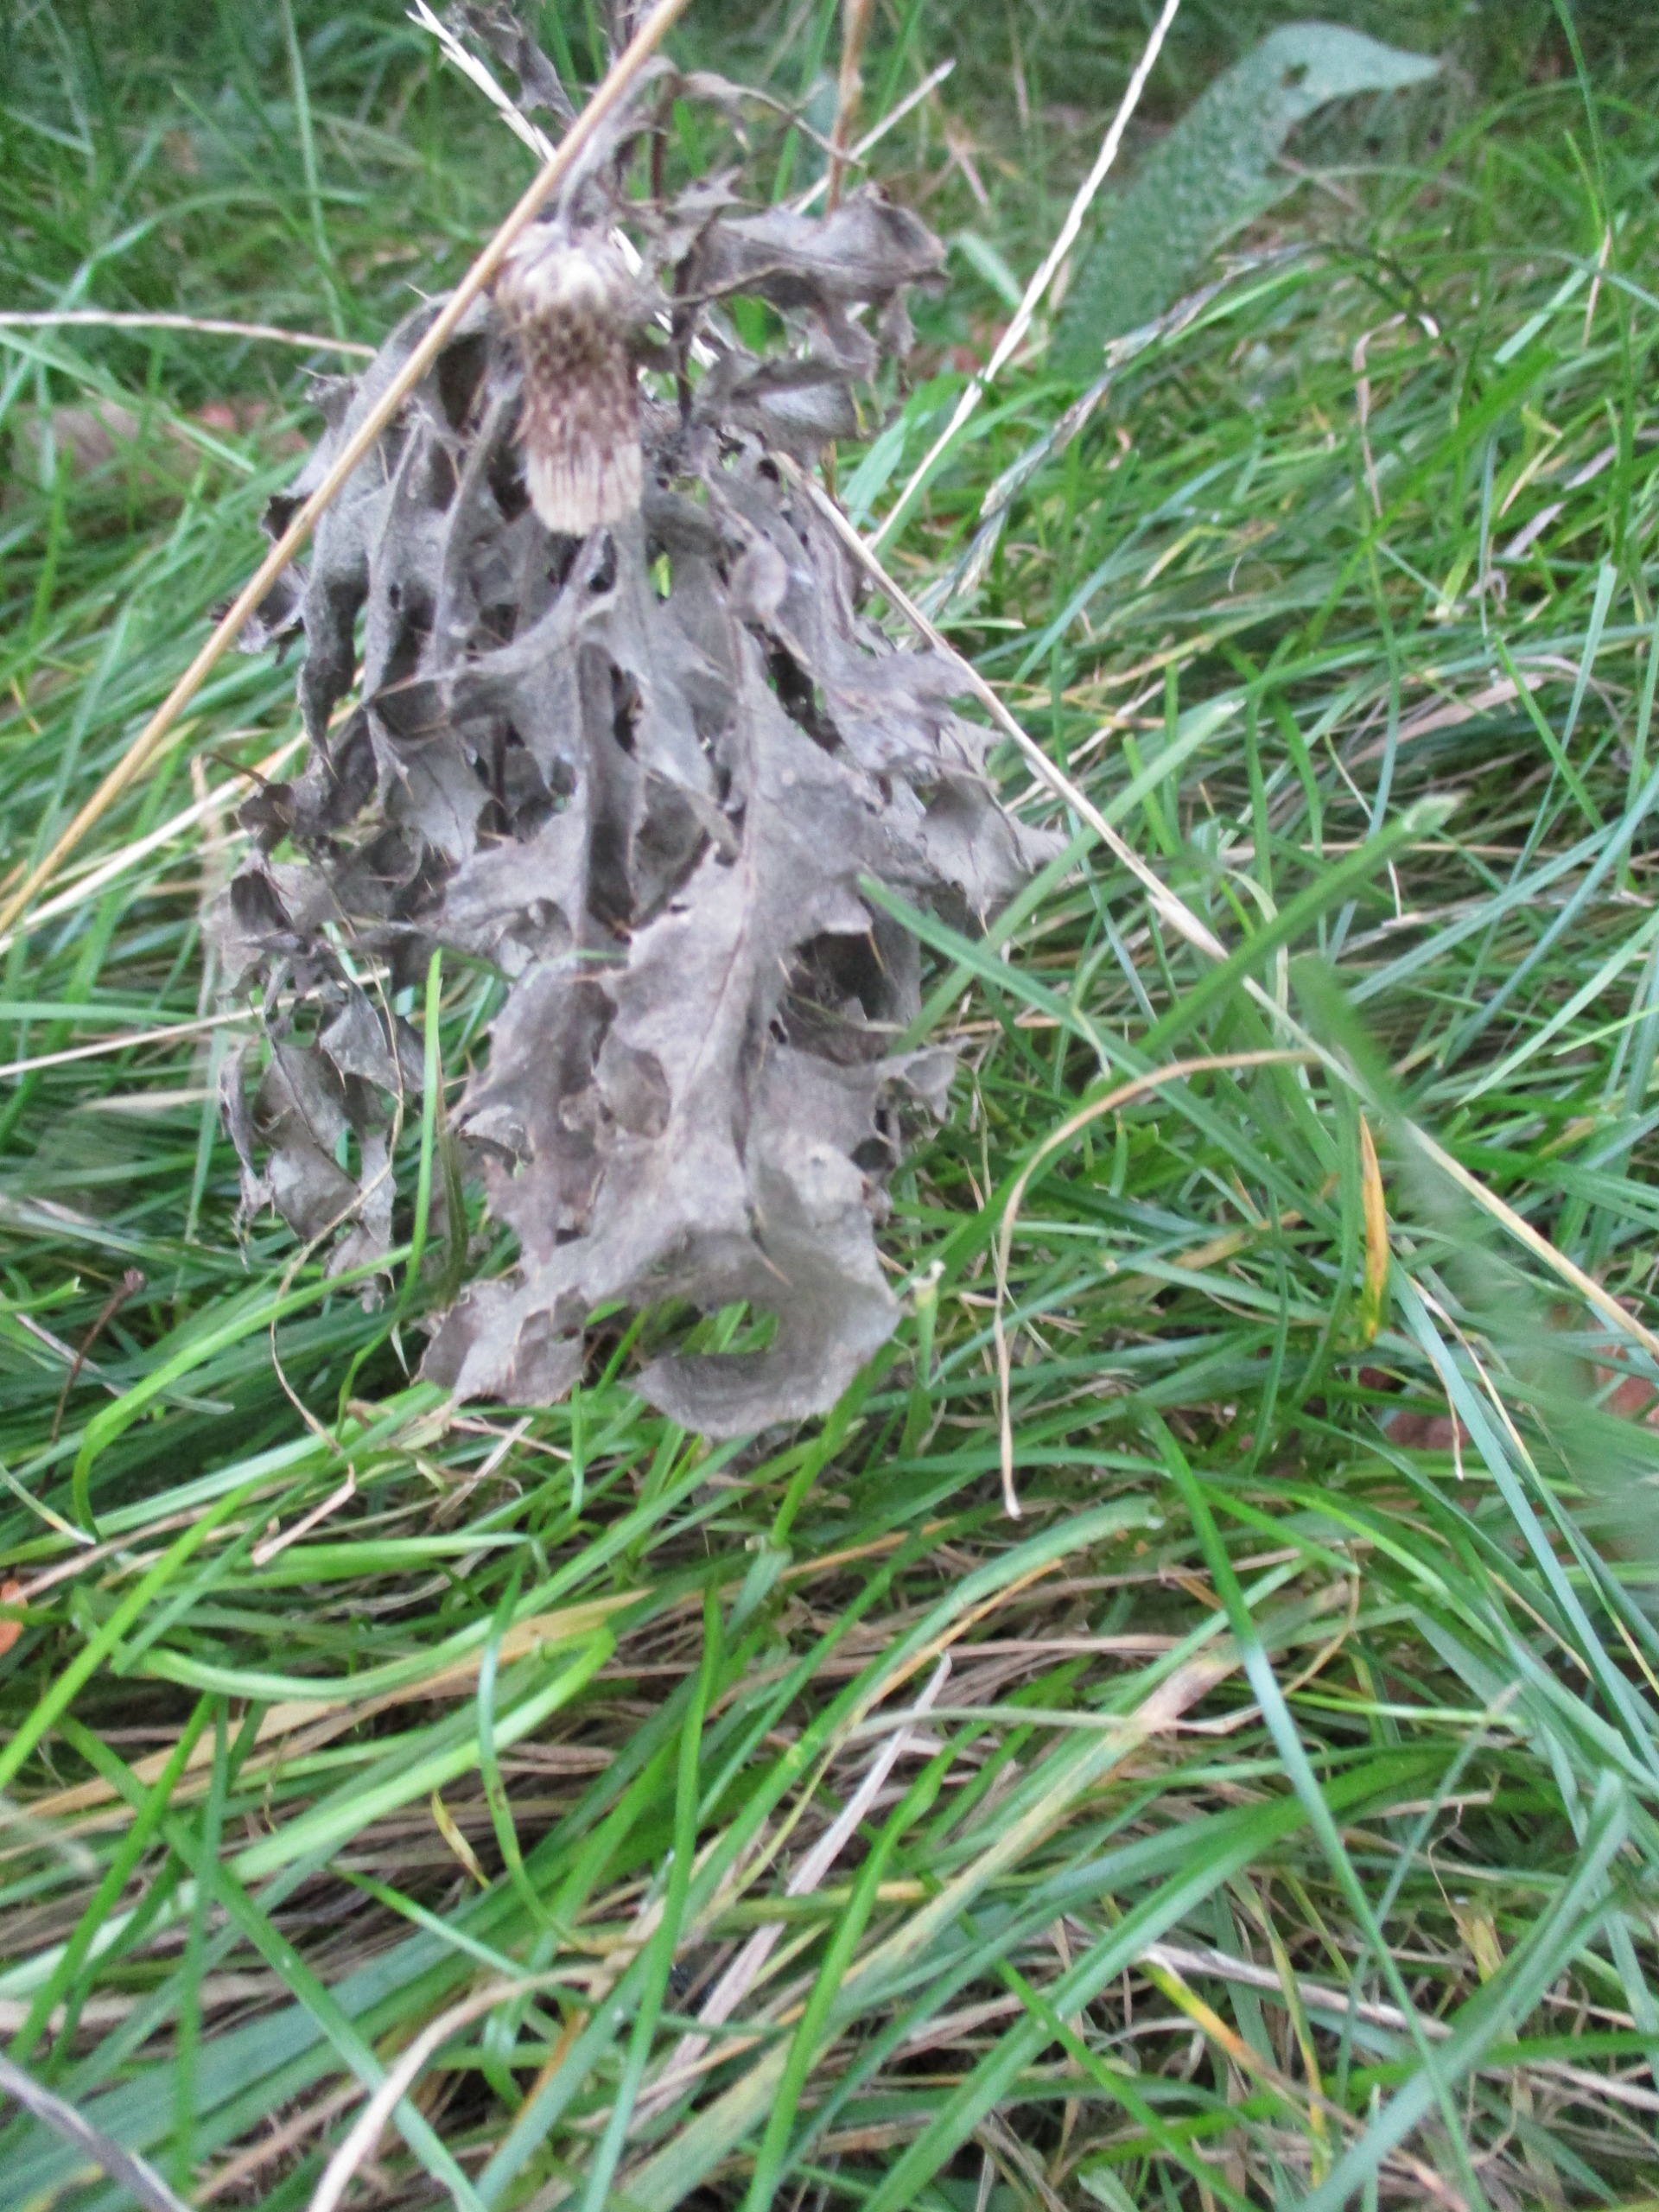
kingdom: Plantae
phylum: Tracheophyta
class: Magnoliopsida
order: Asterales
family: Asteraceae
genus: Cirsium
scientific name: Cirsium arvense
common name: Ager-tidsel
